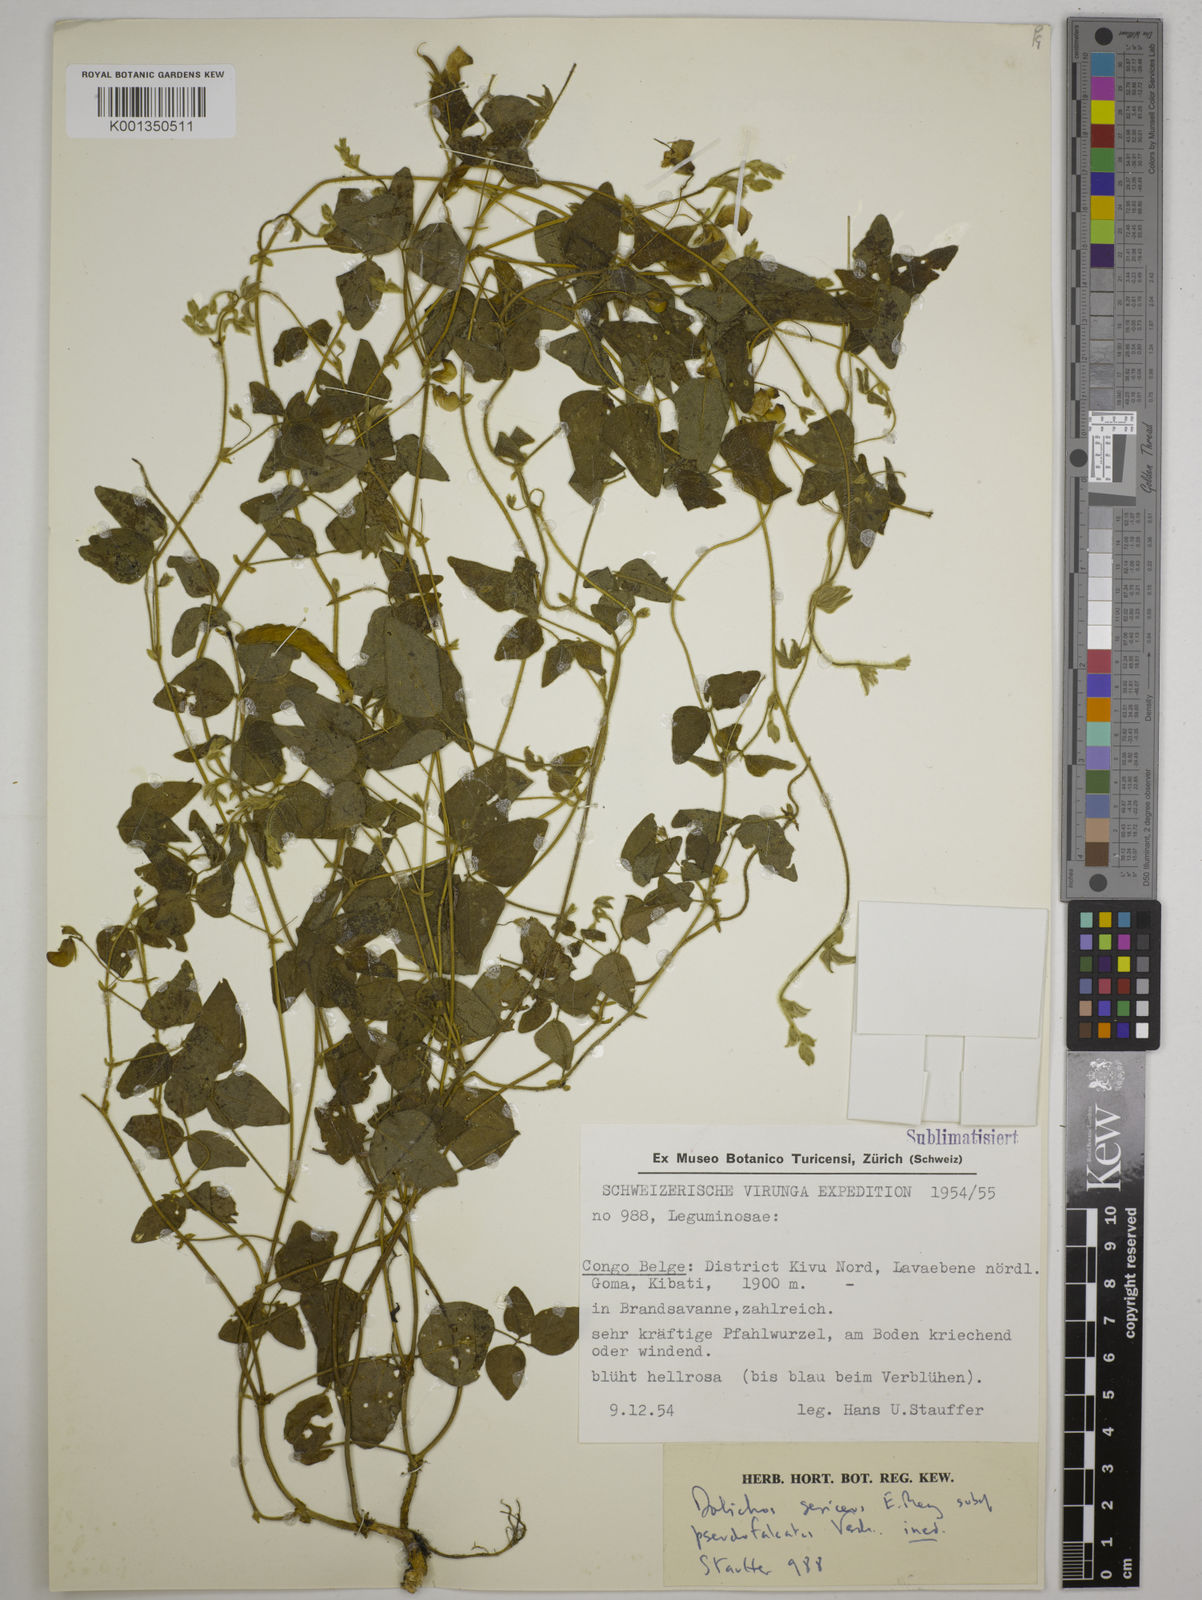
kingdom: Plantae
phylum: Tracheophyta
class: Magnoliopsida
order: Fabales
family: Fabaceae
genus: Dolichos
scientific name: Dolichos
